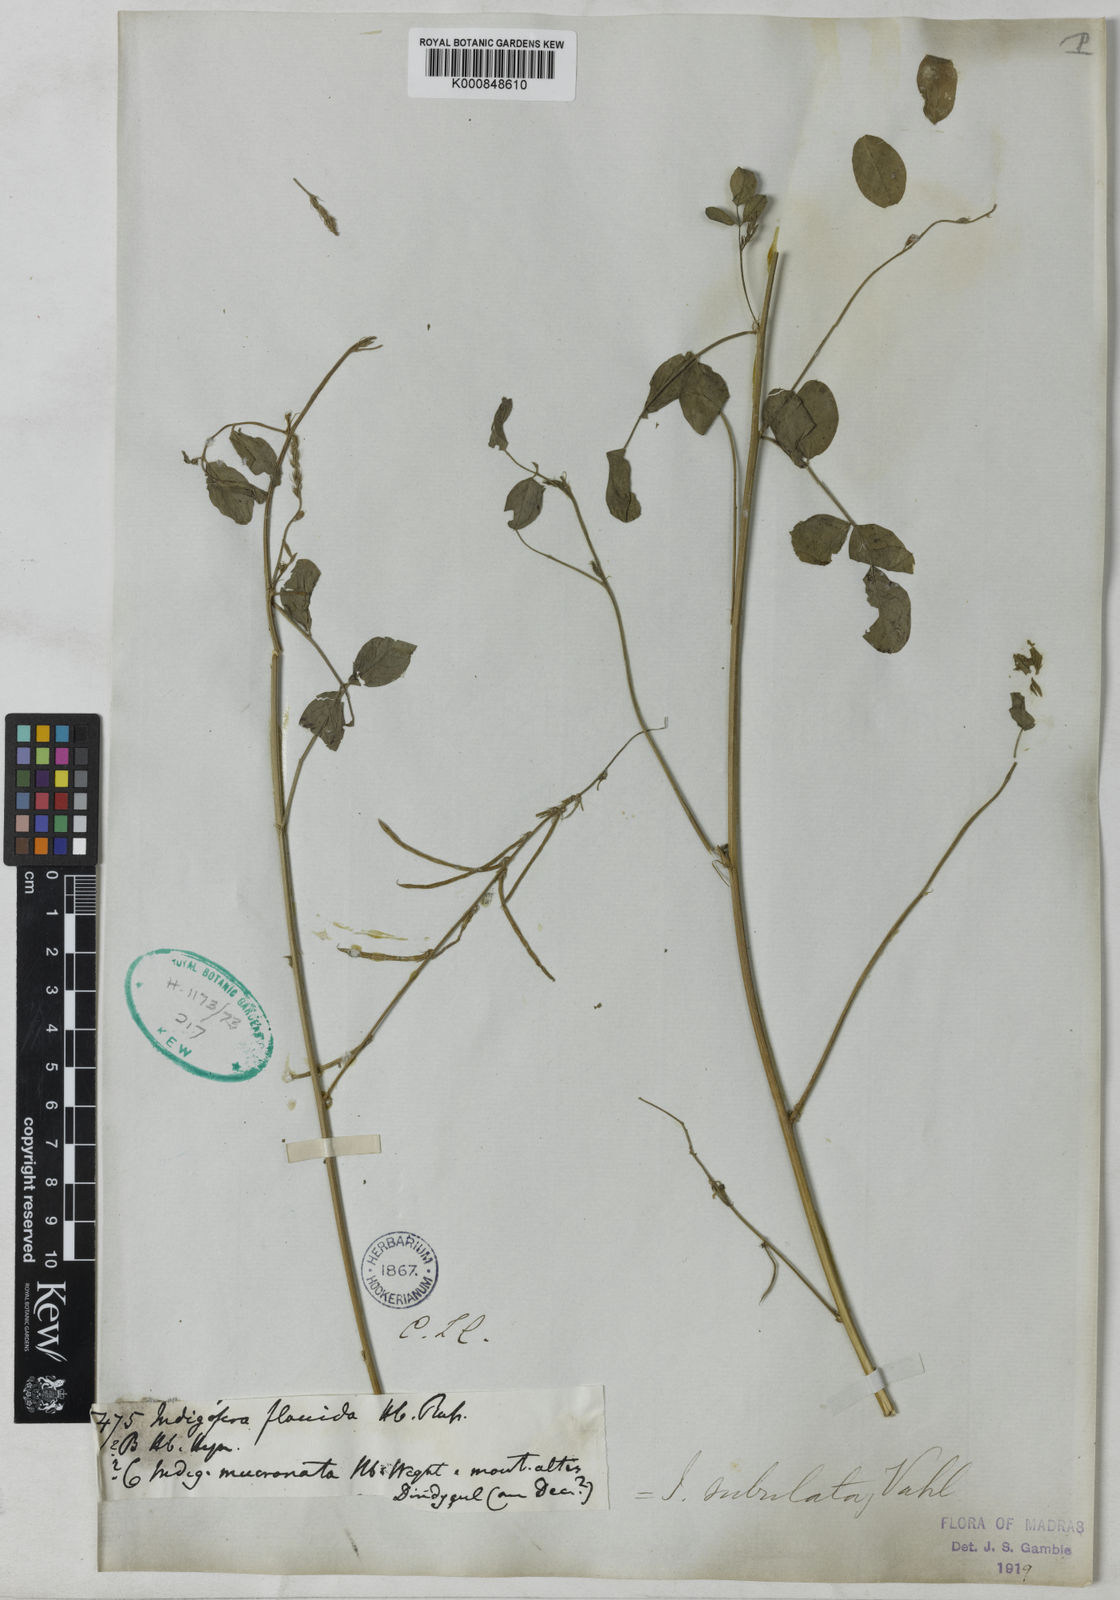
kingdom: Plantae
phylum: Tracheophyta
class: Magnoliopsida
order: Fabales
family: Fabaceae
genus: Indigofera
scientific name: Indigofera subulata
